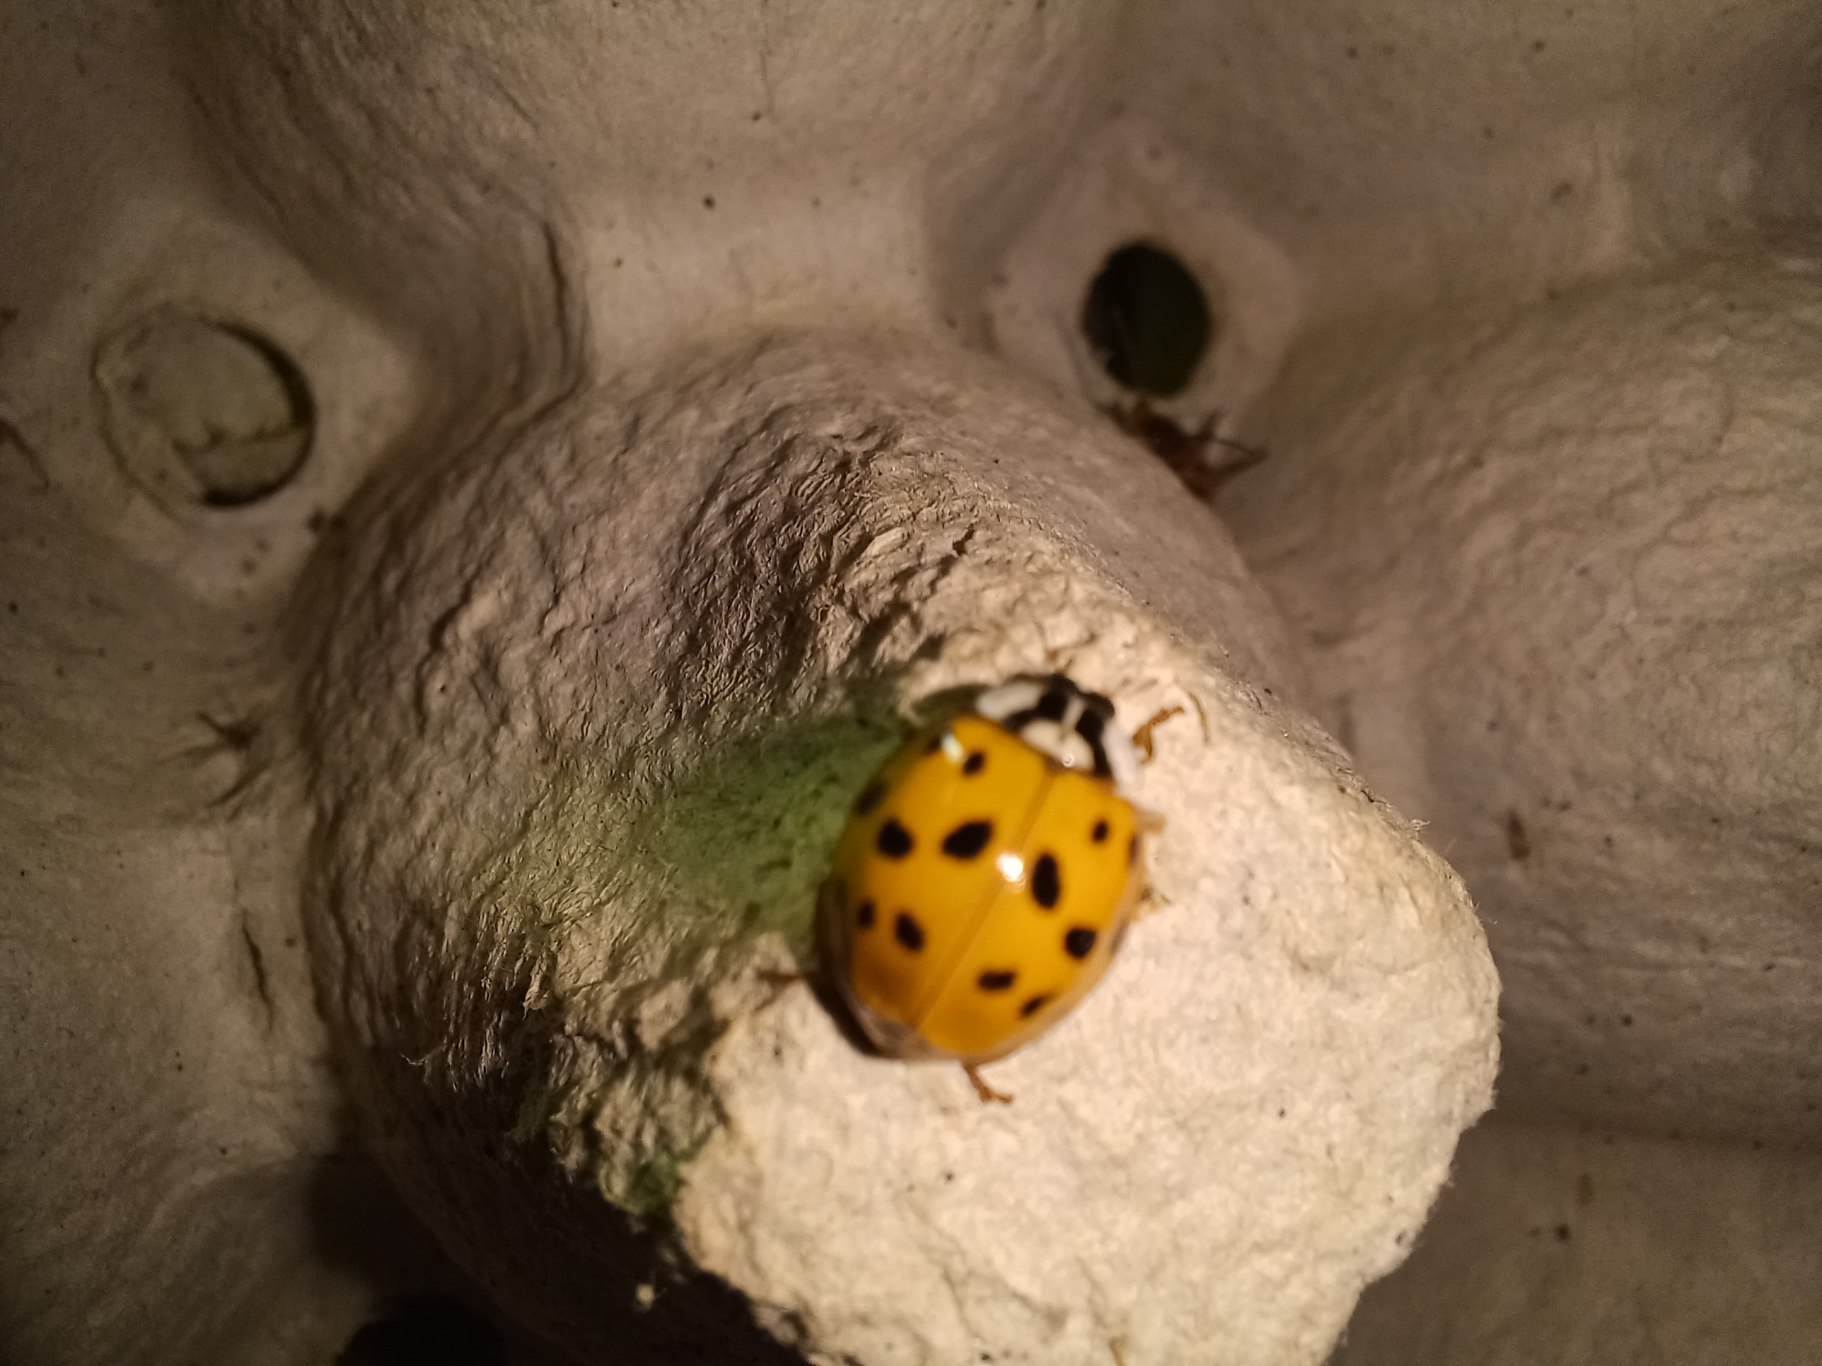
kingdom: Animalia
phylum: Arthropoda
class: Insecta
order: Coleoptera
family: Coccinellidae
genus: Harmonia
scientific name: Harmonia axyridis
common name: Harlekinmariehøne
